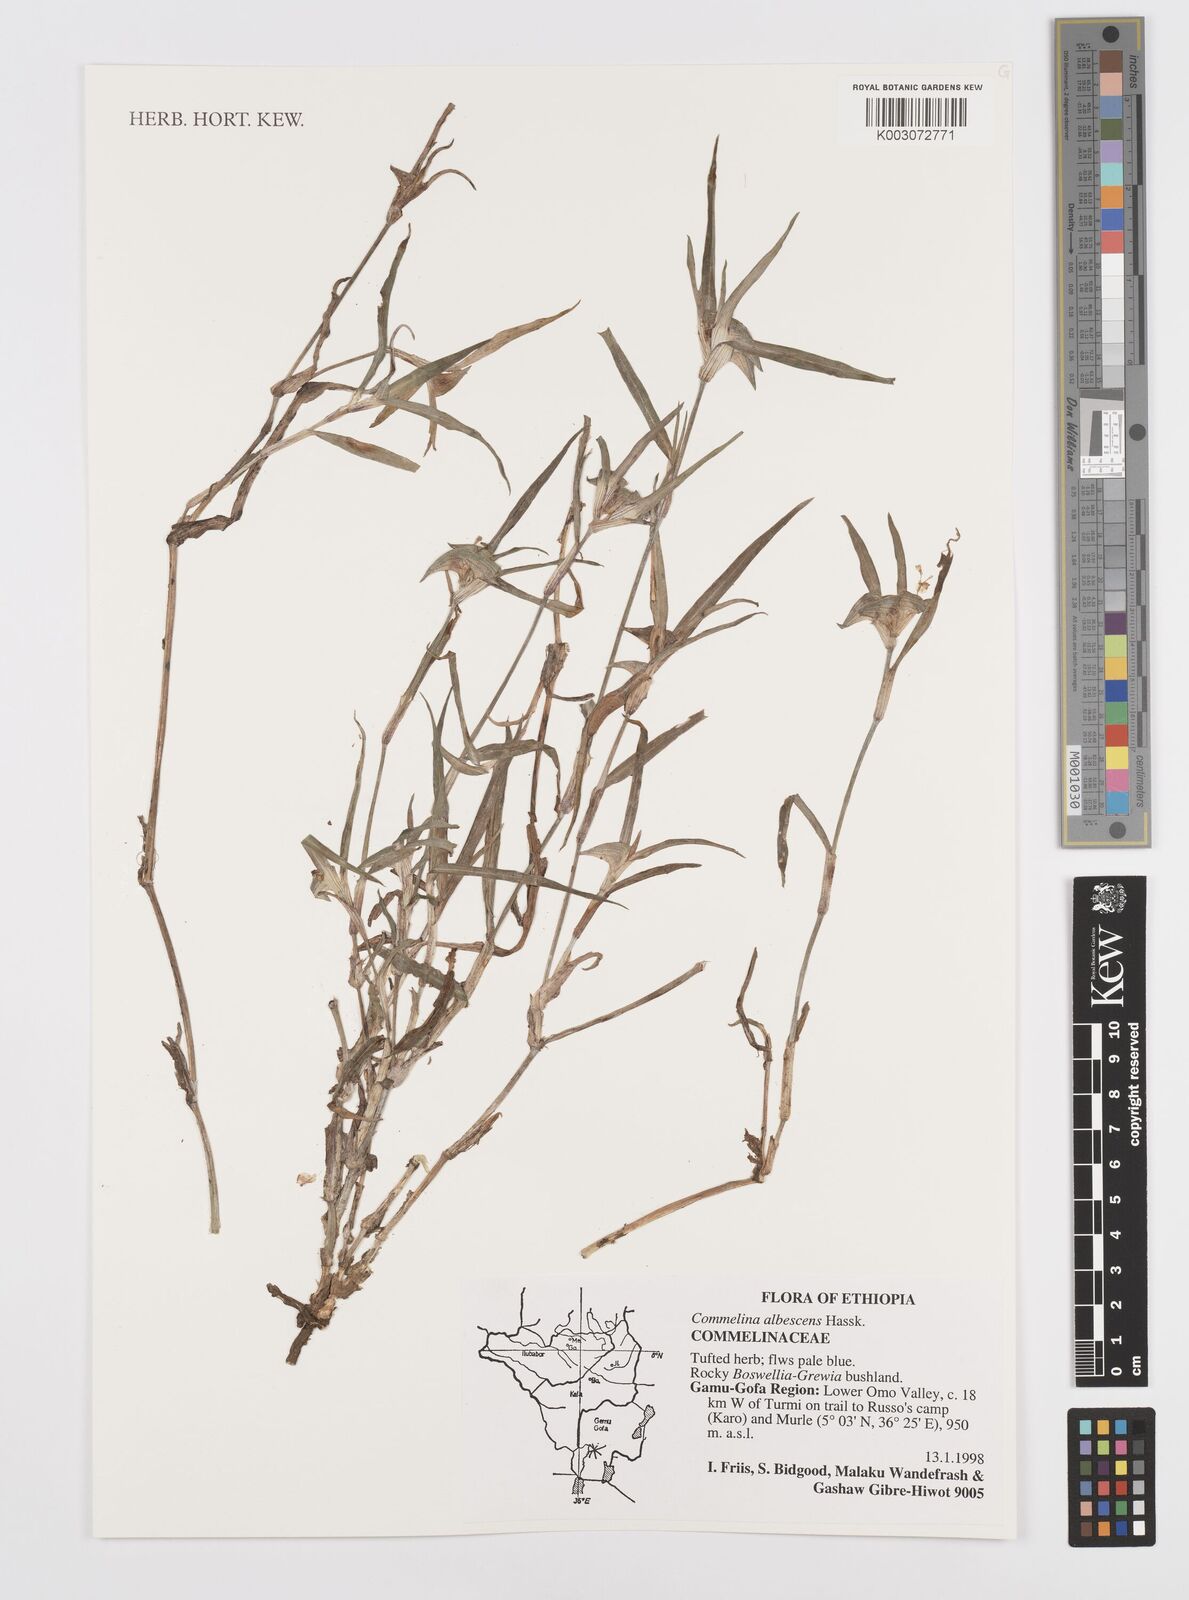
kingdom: Plantae
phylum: Tracheophyta
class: Liliopsida
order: Commelinales
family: Commelinaceae
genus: Commelina
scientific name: Commelina albescens
